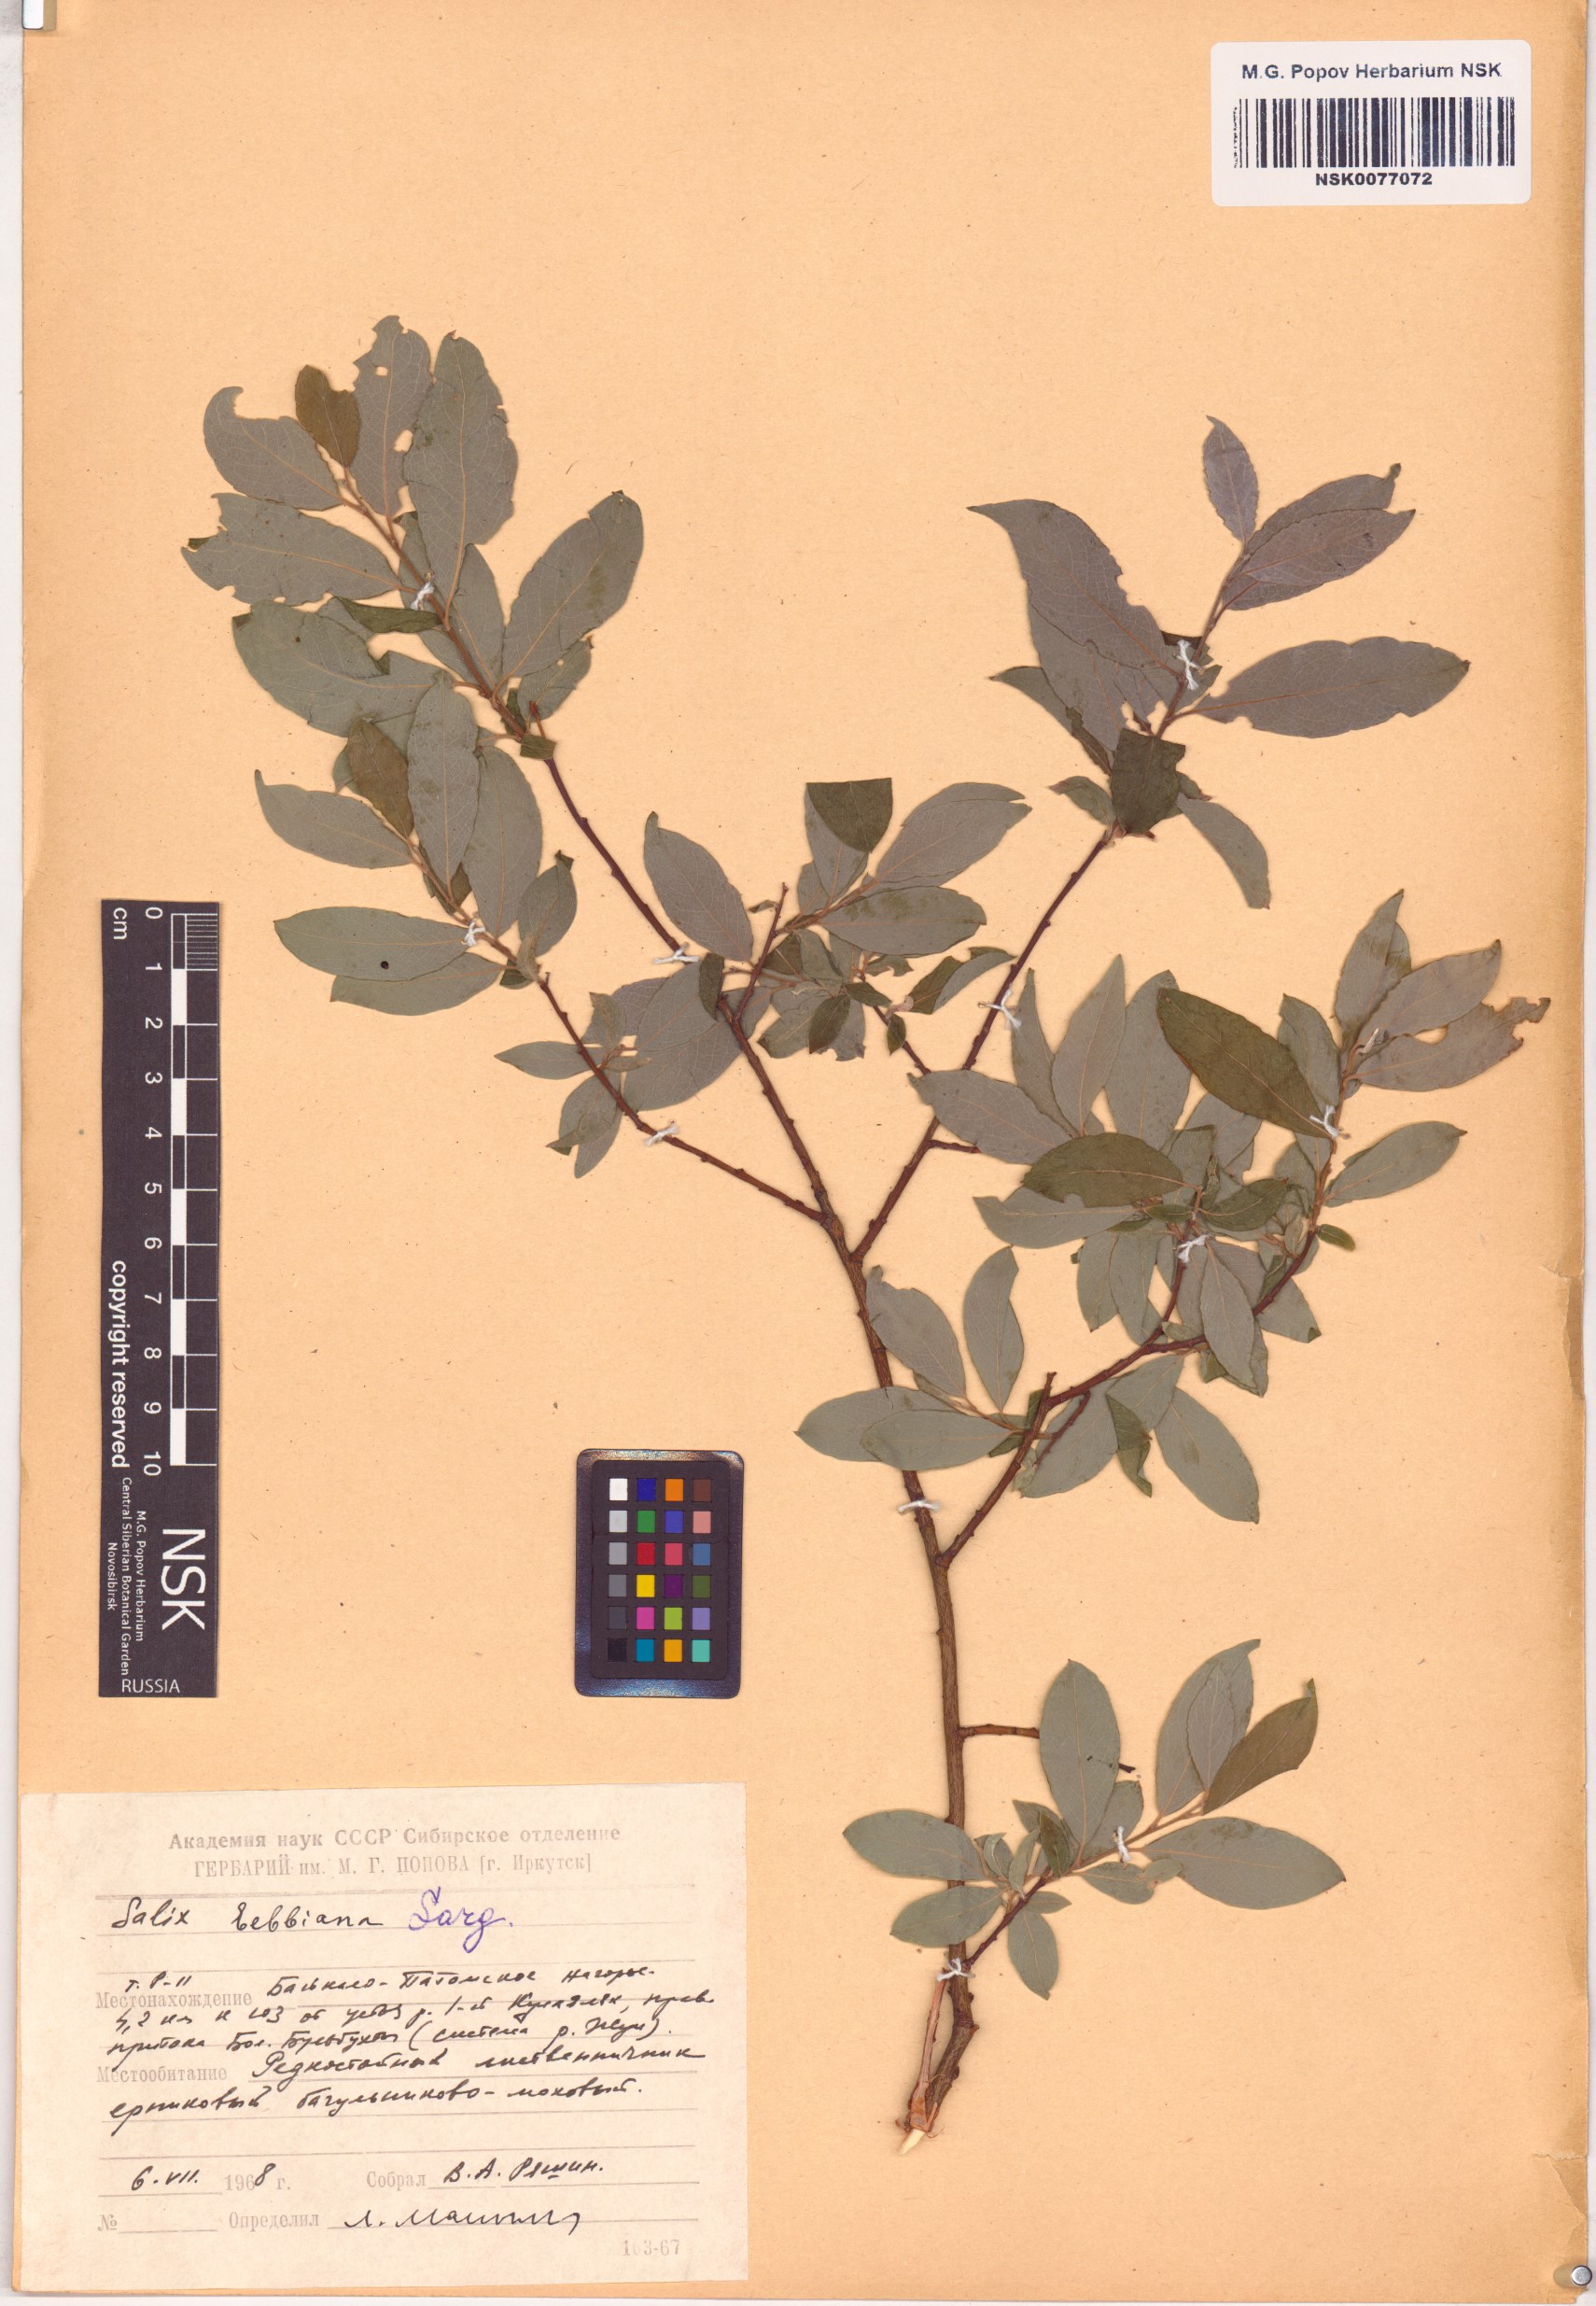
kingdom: Plantae
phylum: Tracheophyta
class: Magnoliopsida
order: Malpighiales
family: Salicaceae
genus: Salix
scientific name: Salix bebbiana
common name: Bebb's willow
